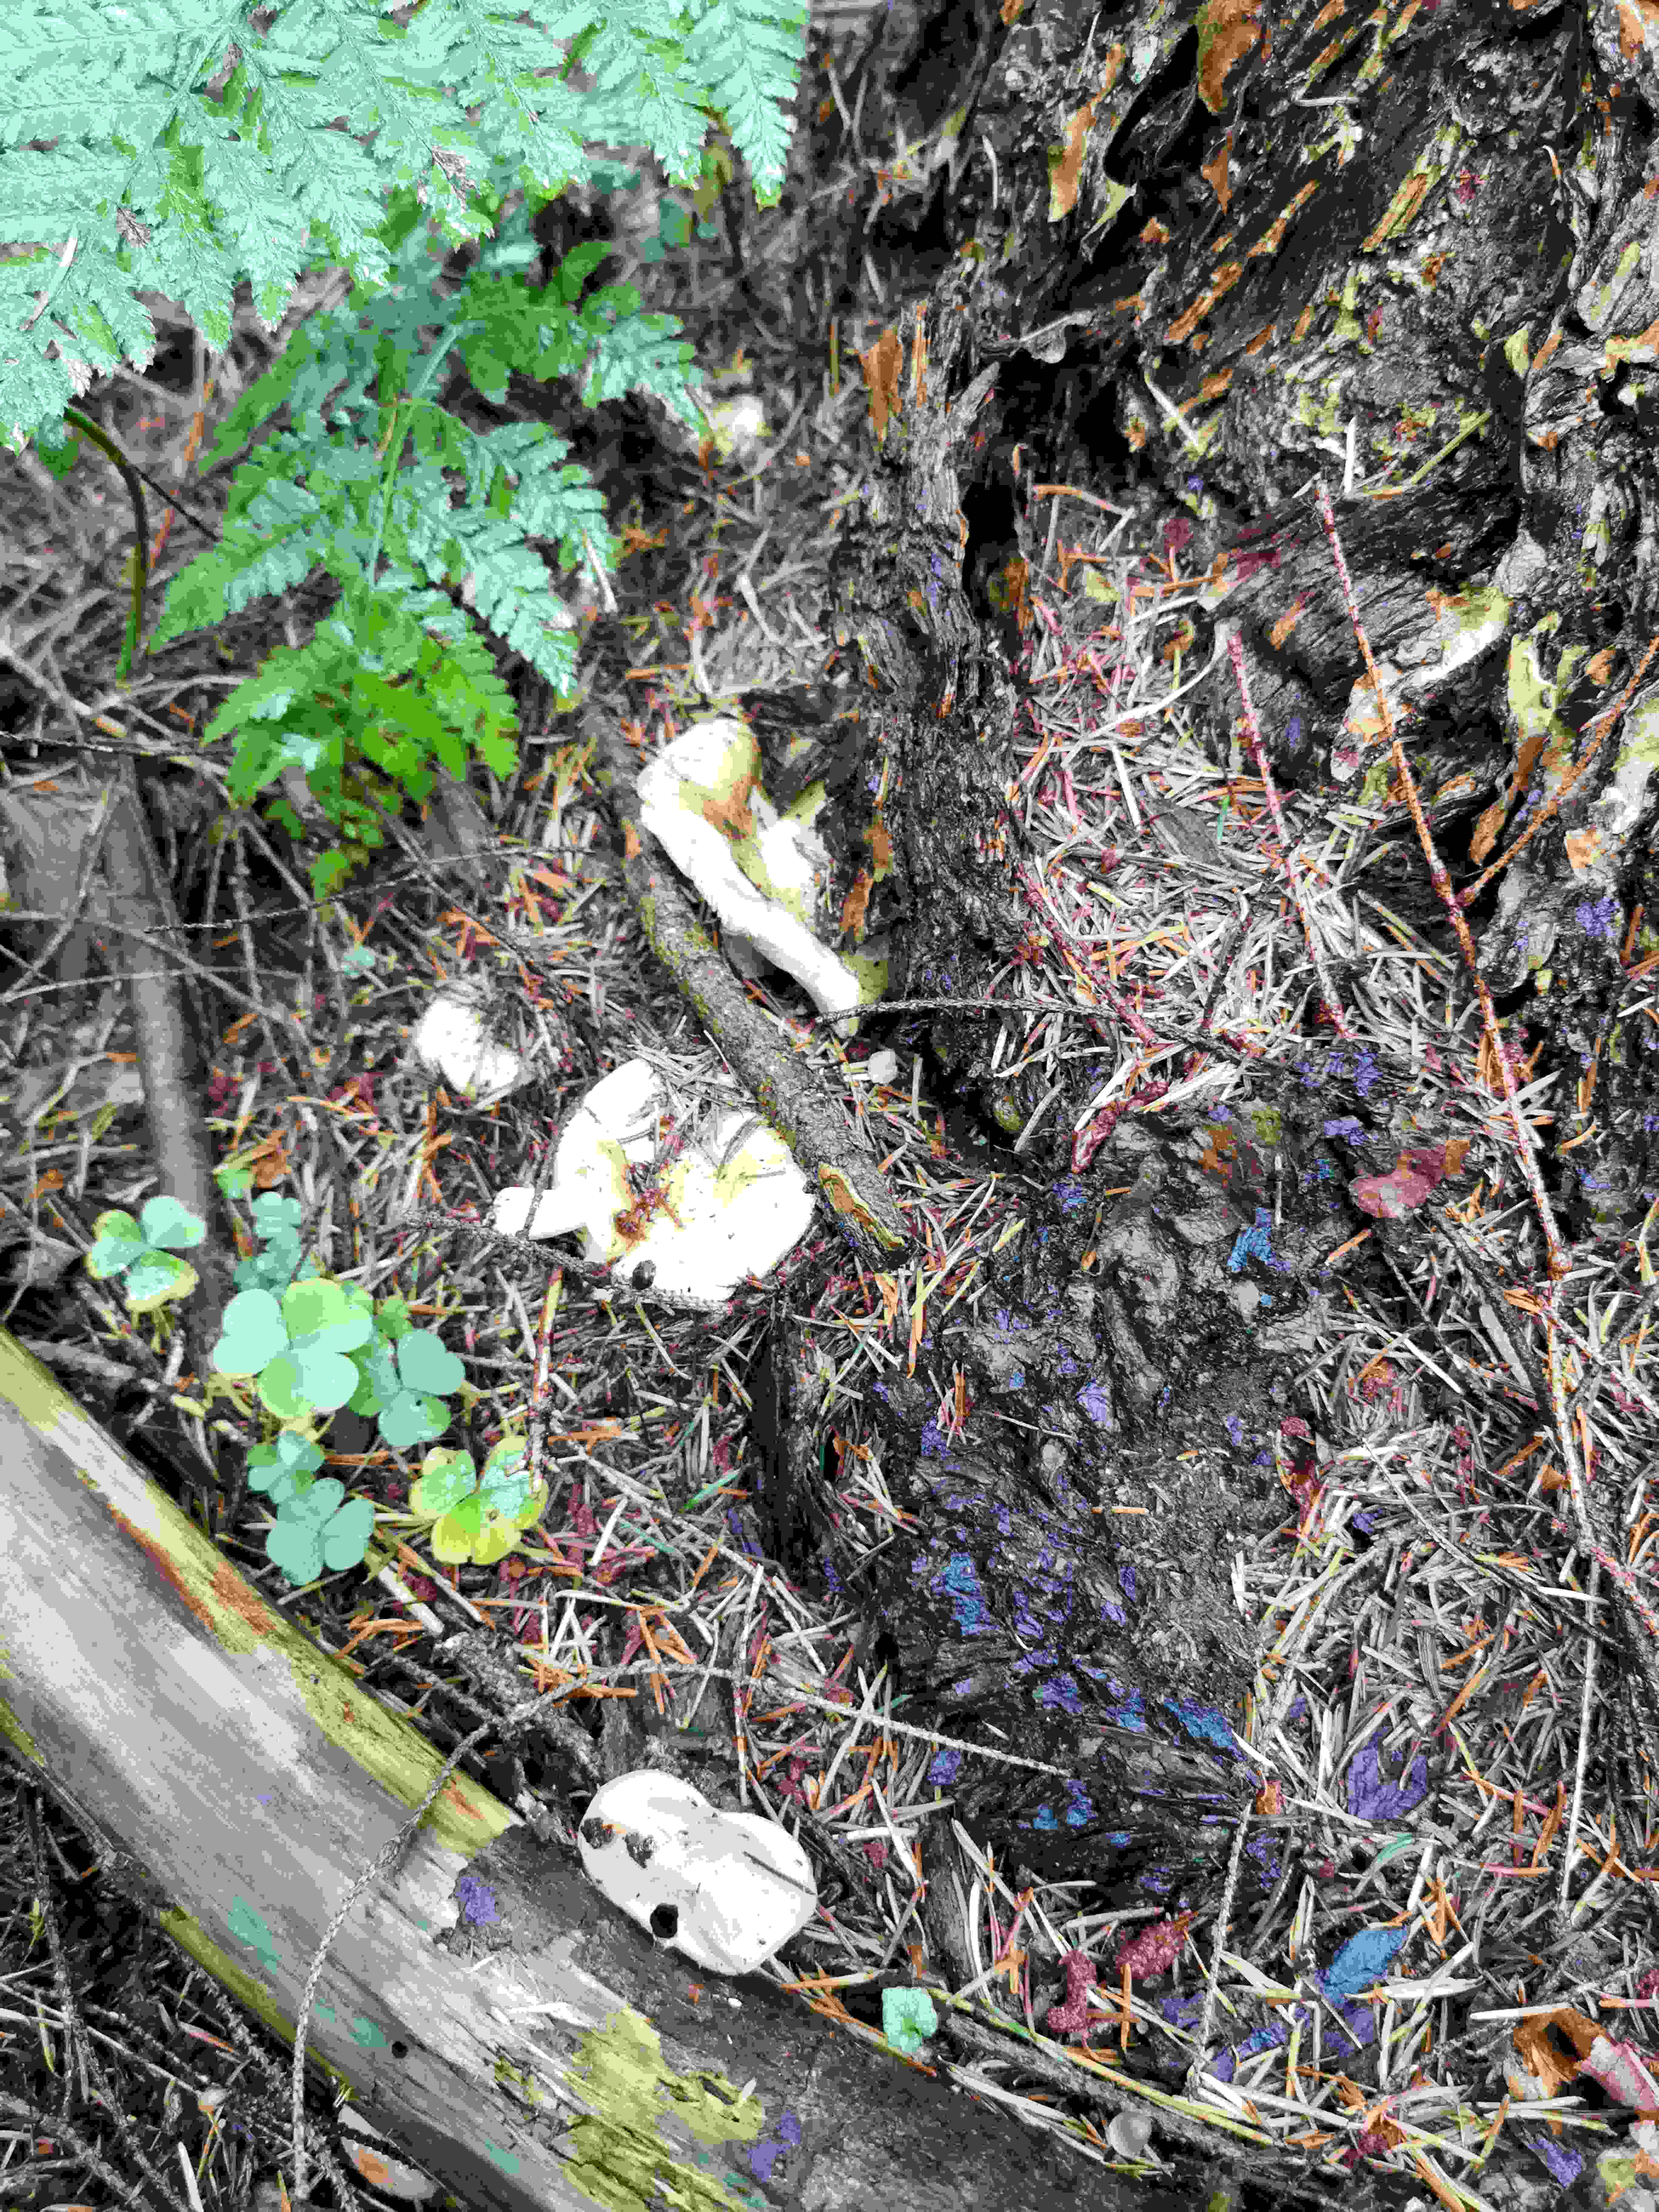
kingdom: Fungi
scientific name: Fungi
